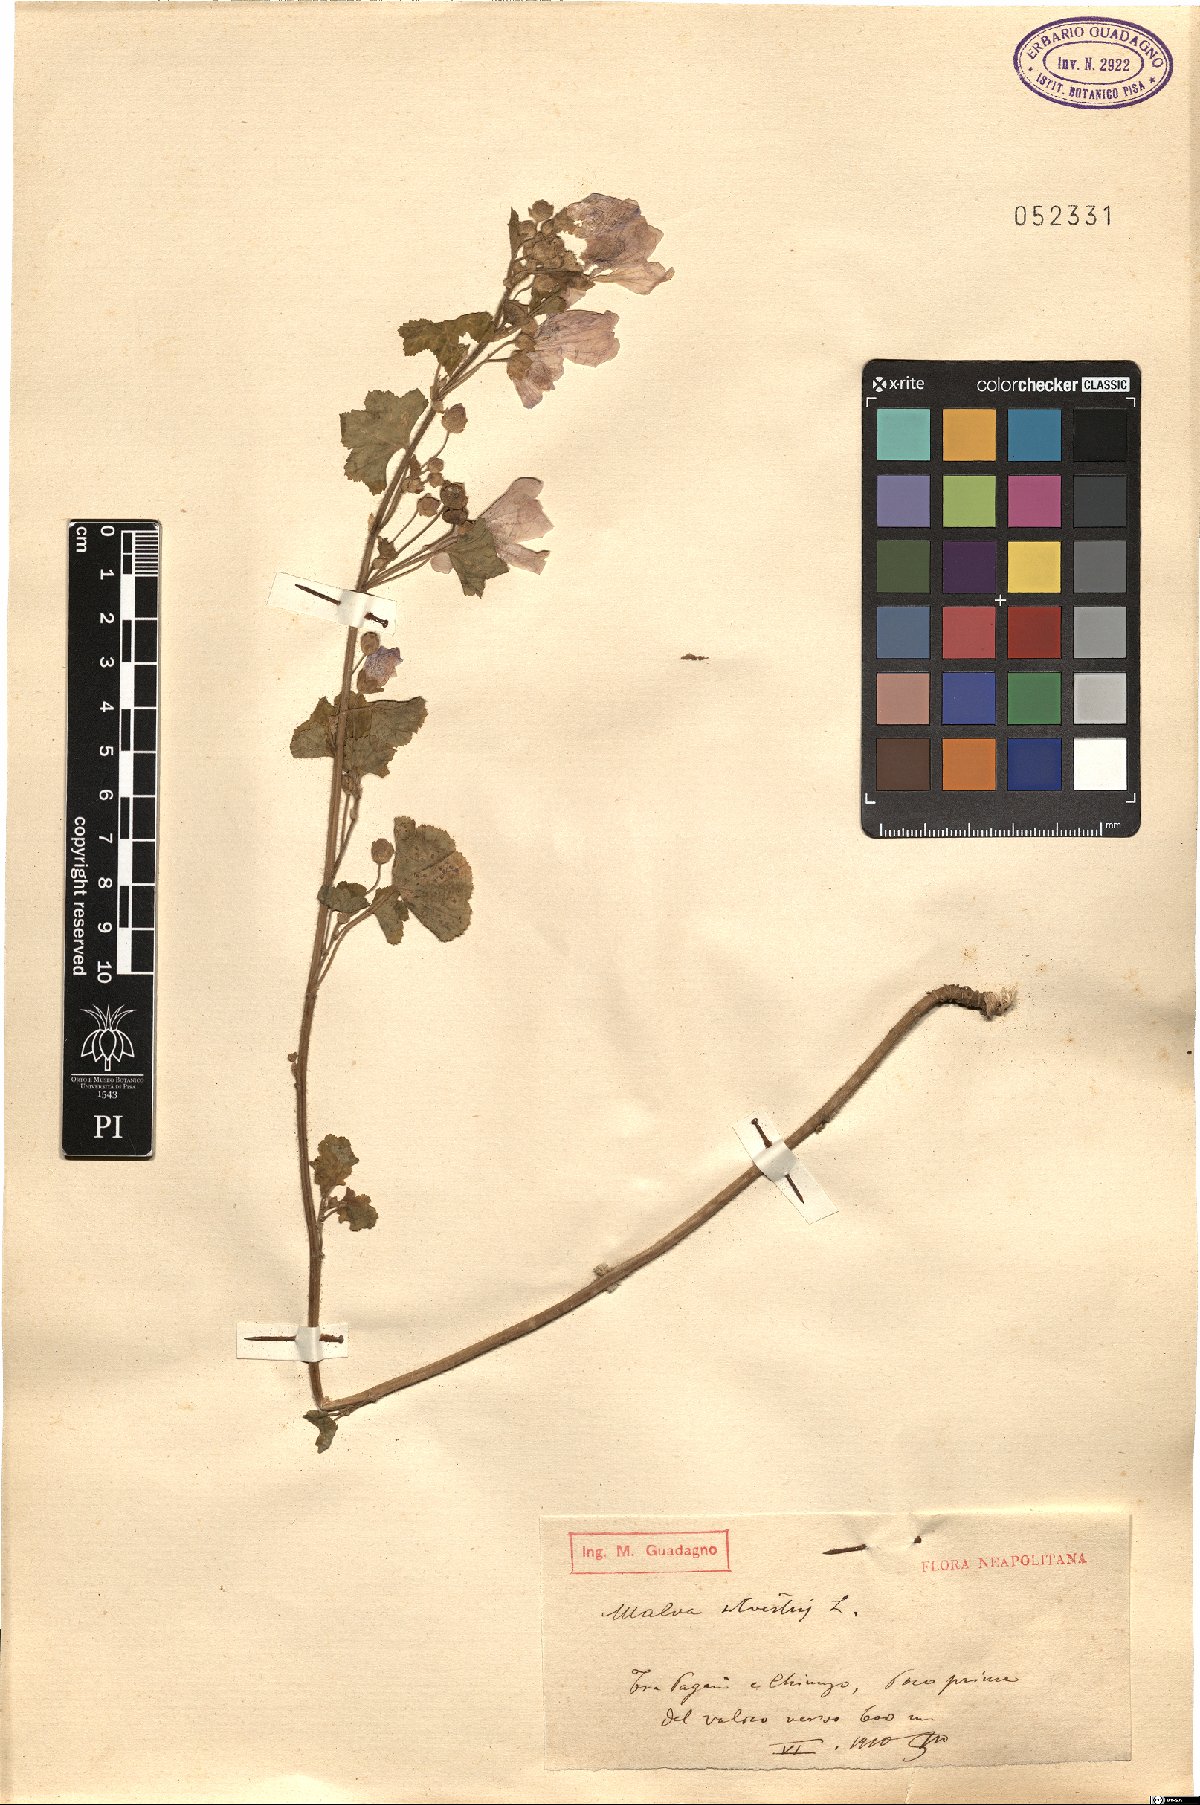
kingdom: Plantae
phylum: Tracheophyta
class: Magnoliopsida
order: Malvales
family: Malvaceae
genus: Malva
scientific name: Malva sylvestris
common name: Common mallow
